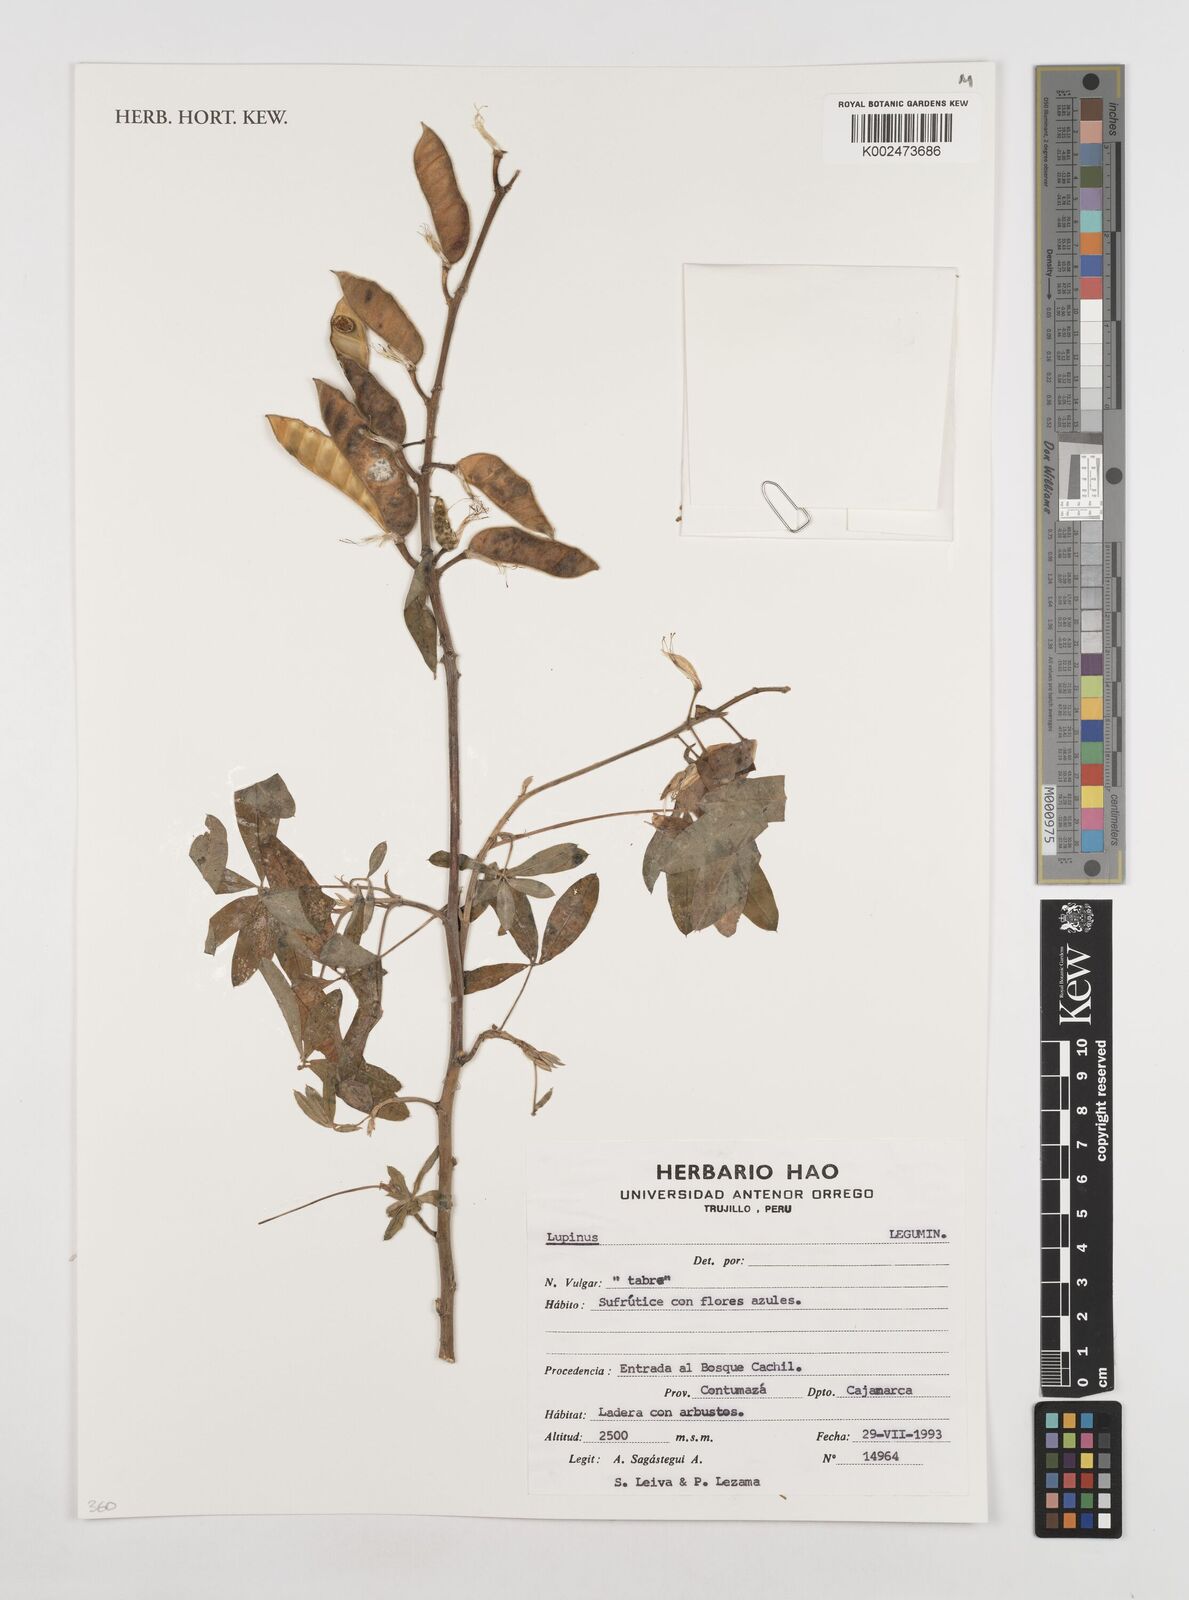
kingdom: Plantae
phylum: Tracheophyta
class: Magnoliopsida
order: Fabales
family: Fabaceae
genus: Lupinus
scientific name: Lupinus
